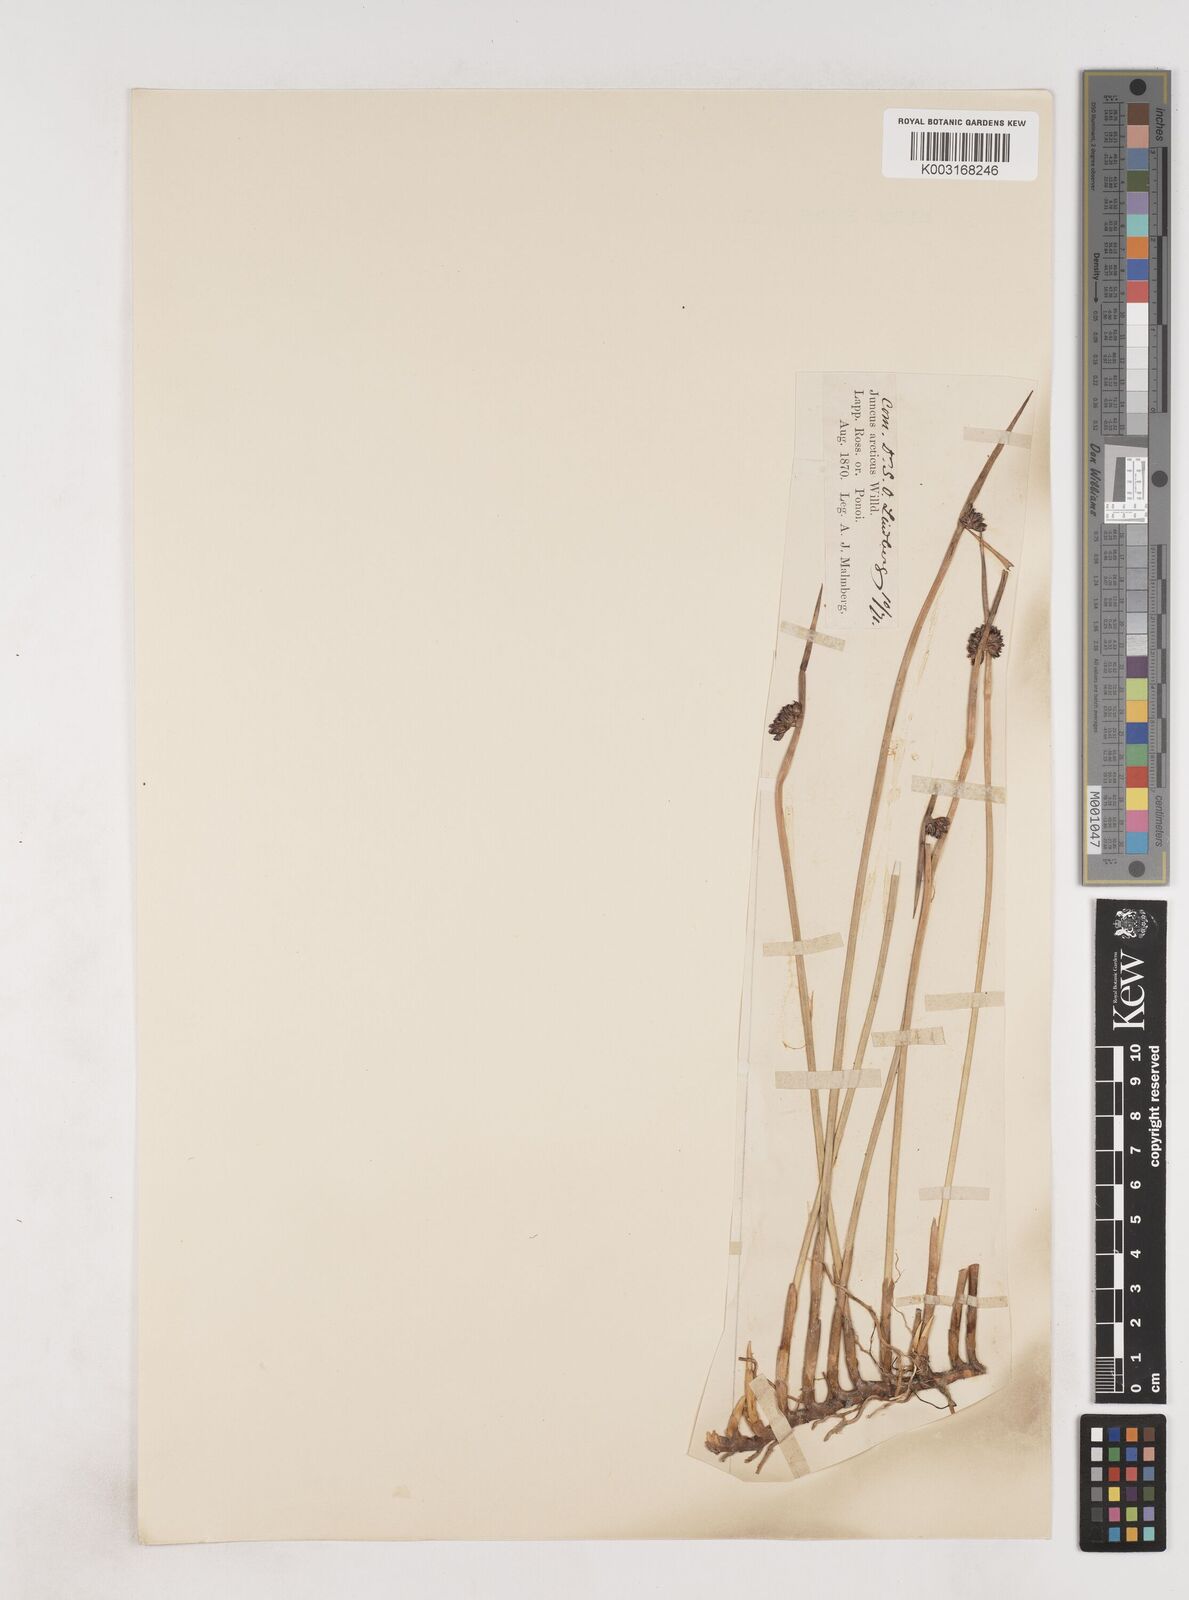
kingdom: Plantae
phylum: Tracheophyta
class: Liliopsida
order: Poales
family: Juncaceae
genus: Juncus
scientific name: Juncus arcticus
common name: Arctic rush
